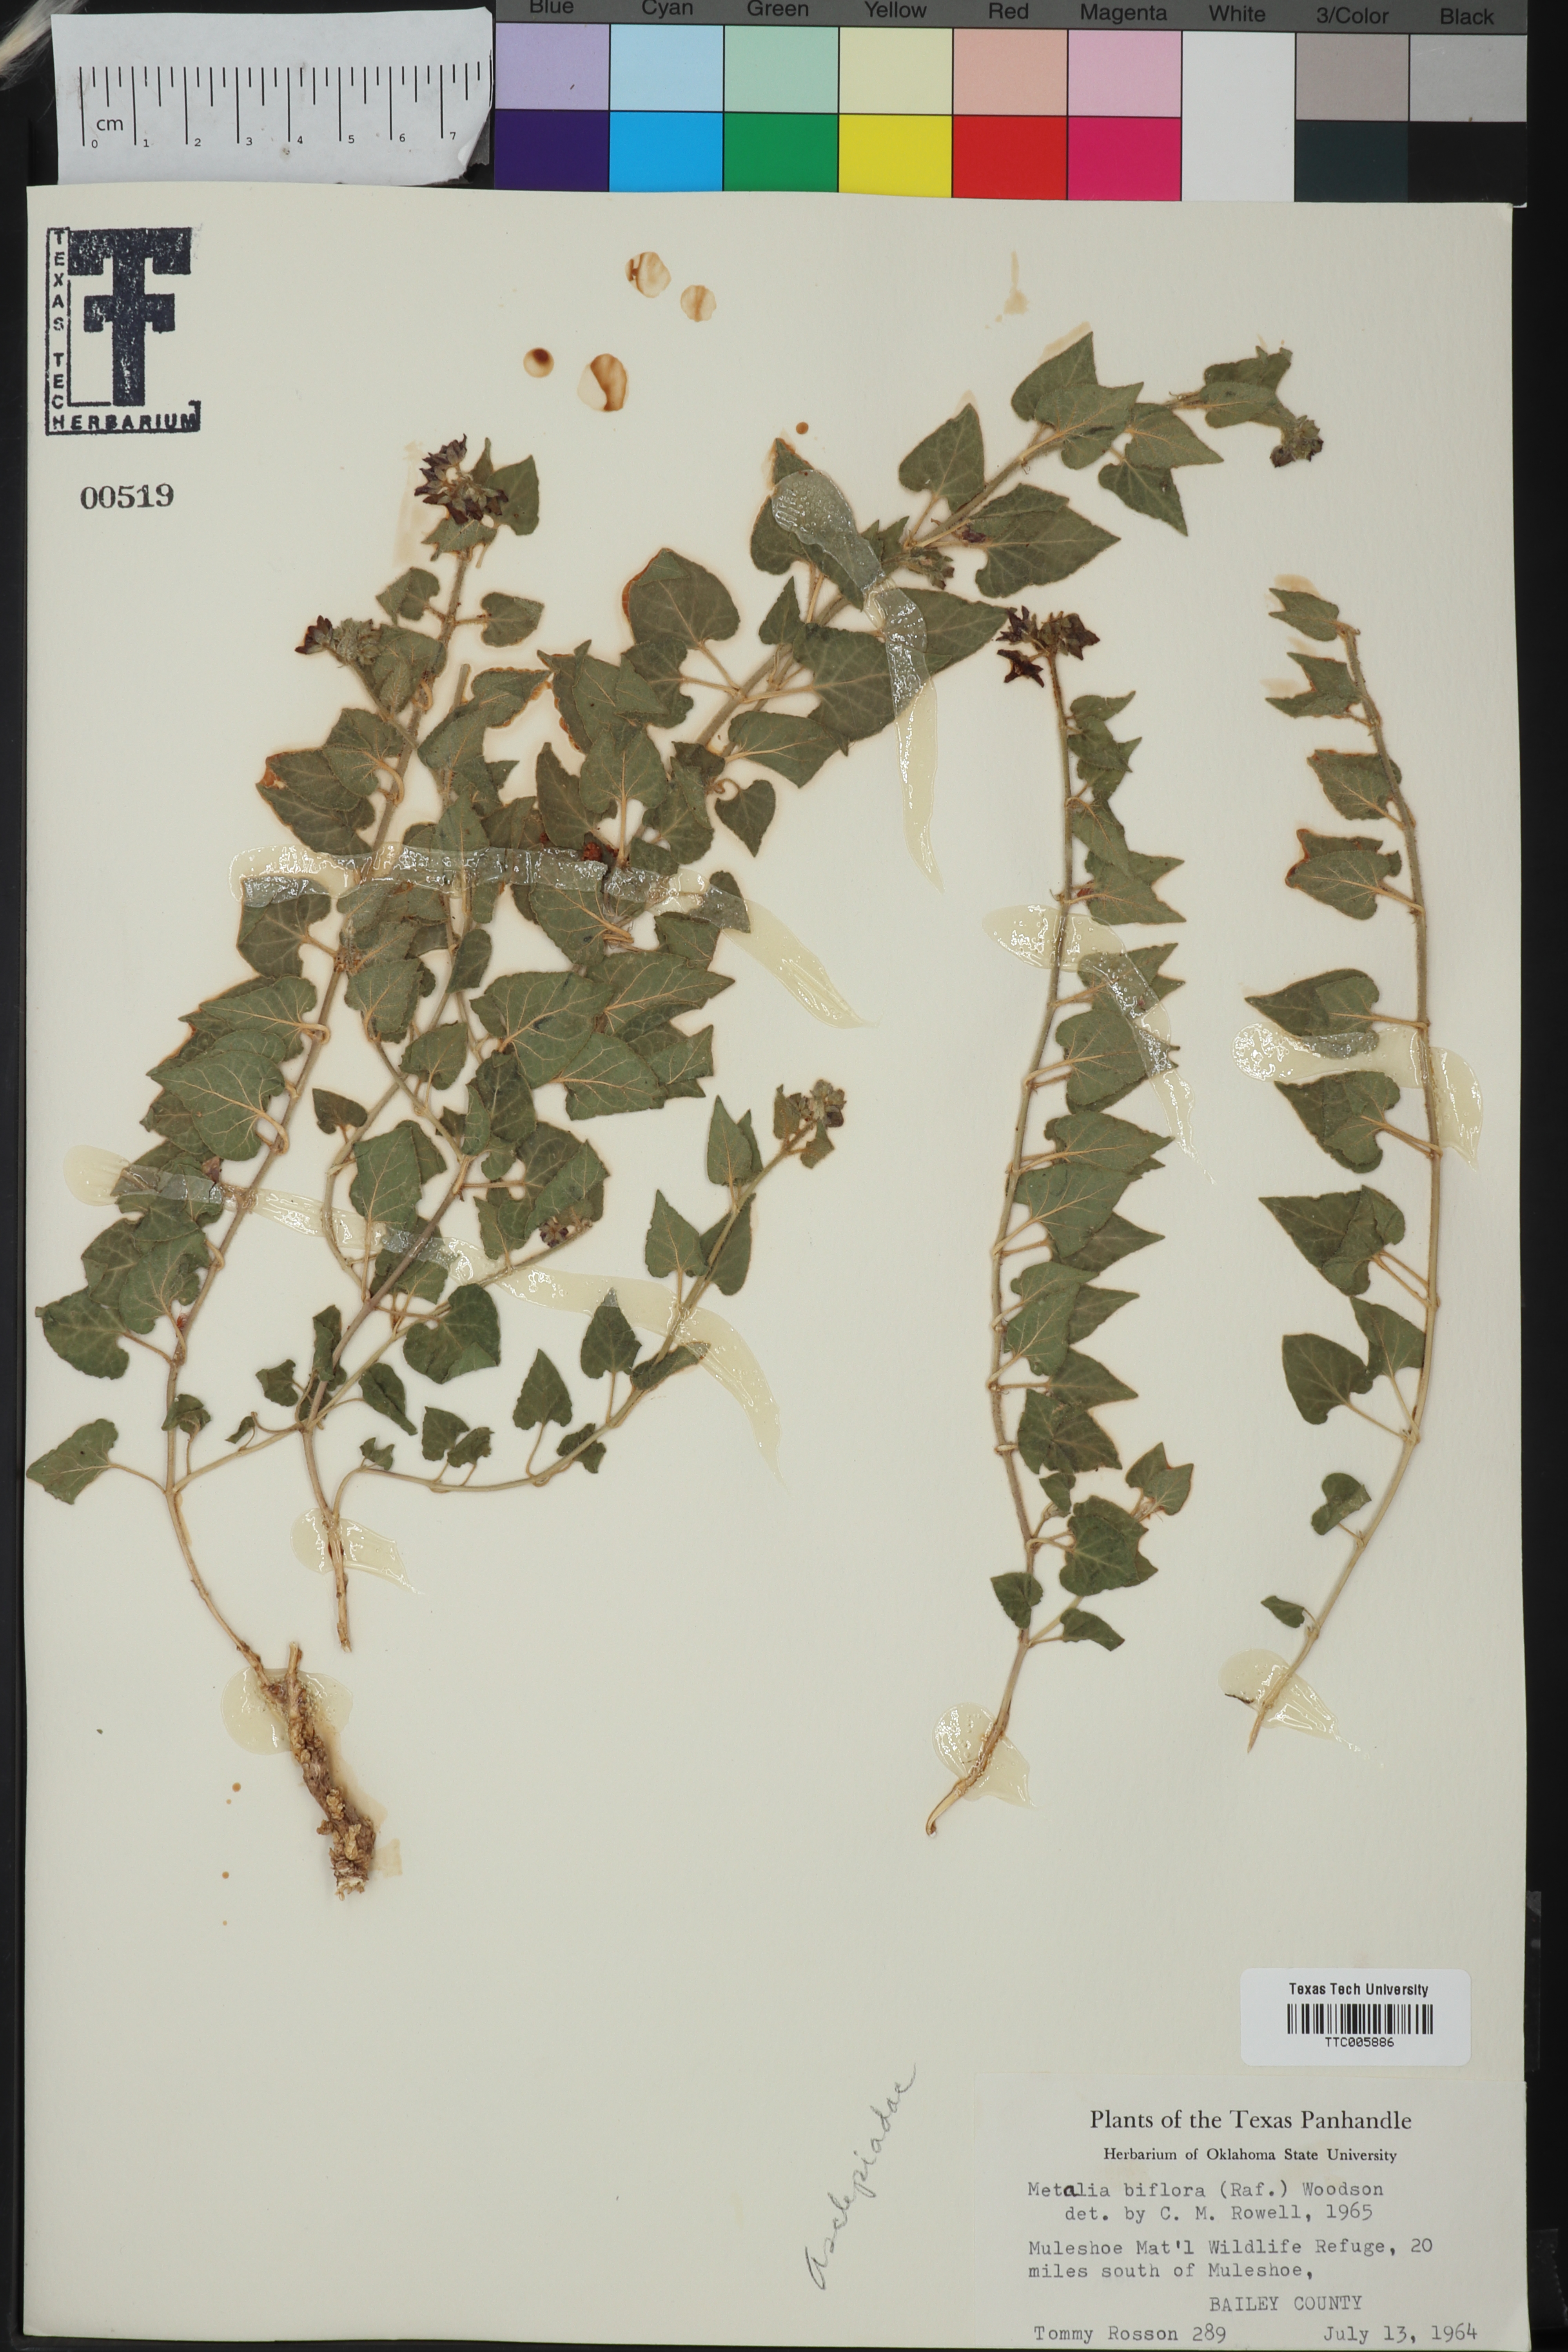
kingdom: Plantae
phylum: Tracheophyta
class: Magnoliopsida
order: Gentianales
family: Asclepiadaceae
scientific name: Asclepiadaceae
